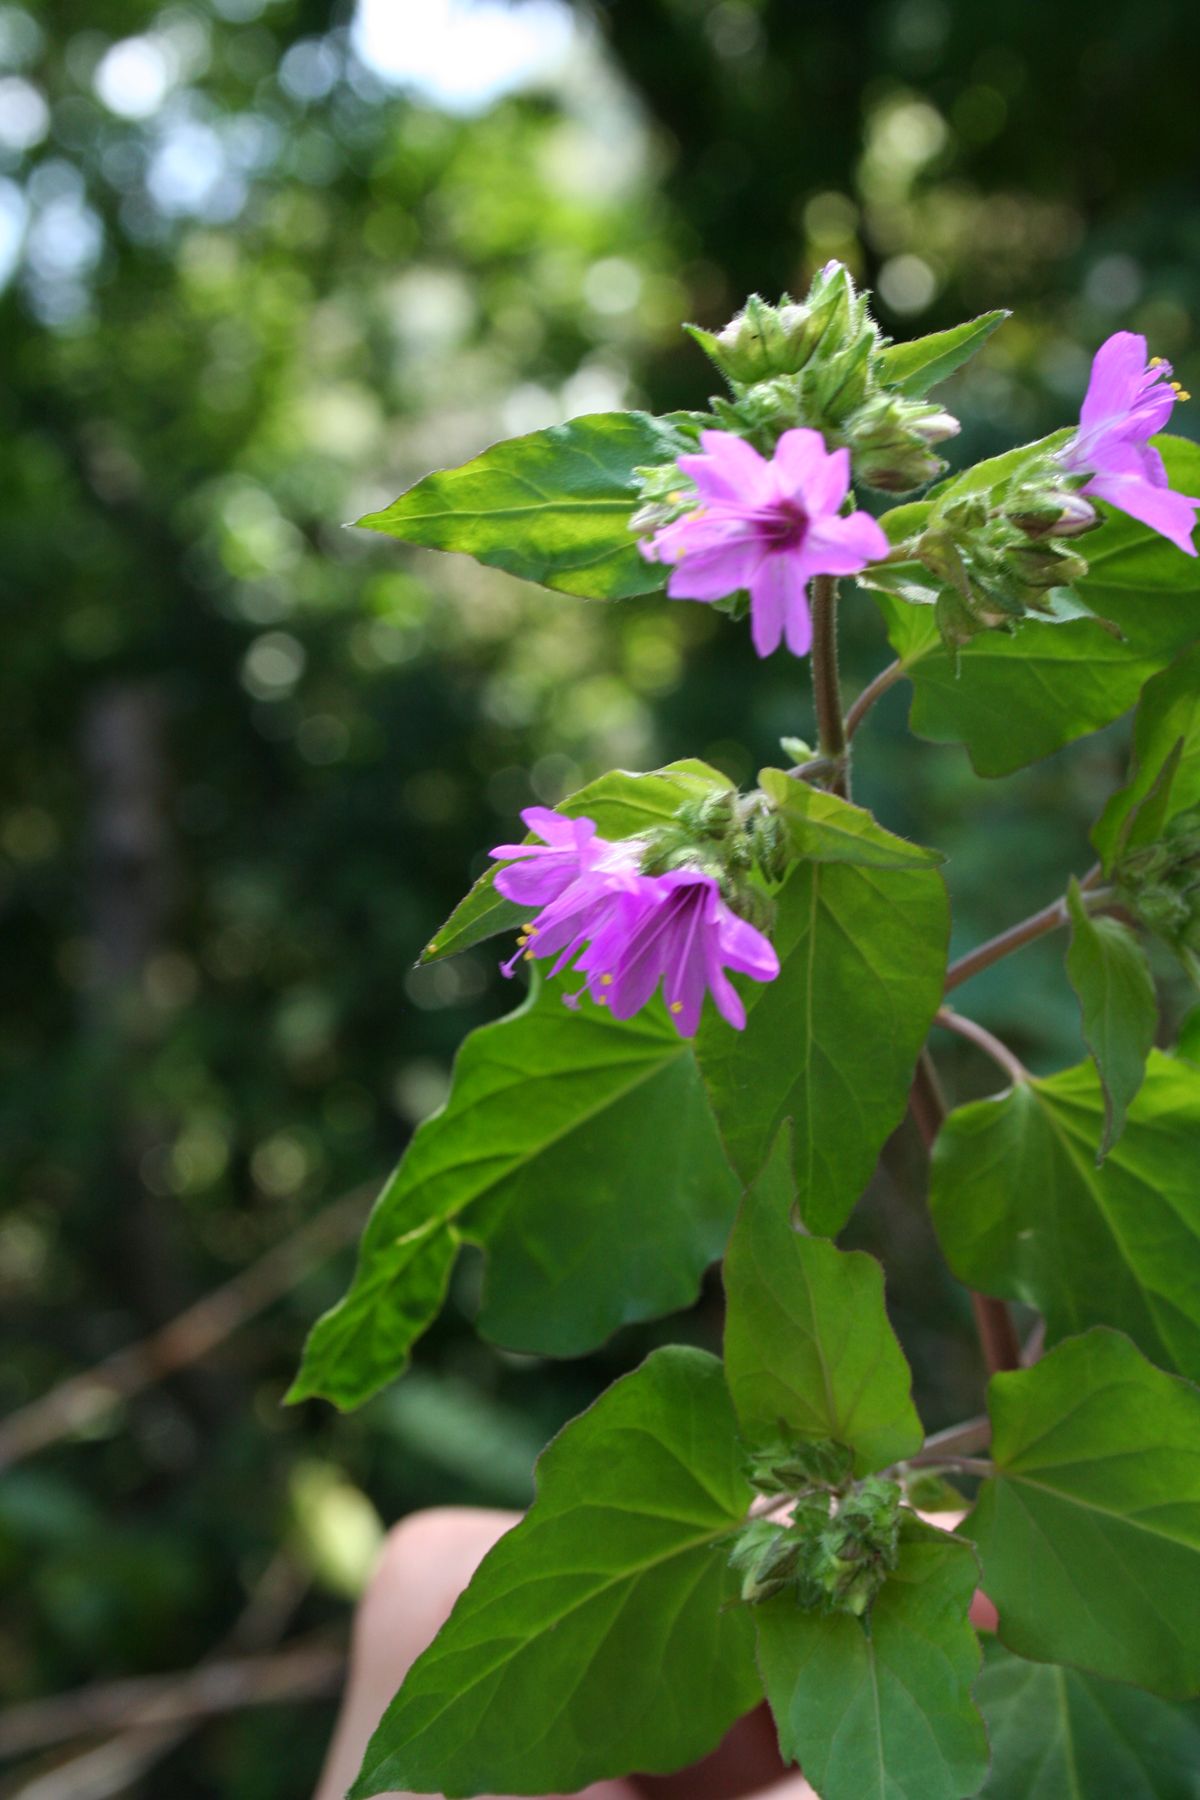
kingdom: Plantae
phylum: Tracheophyta
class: Magnoliopsida
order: Caryophyllales
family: Nyctaginaceae
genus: Mirabilis
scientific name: Mirabilis violacea
